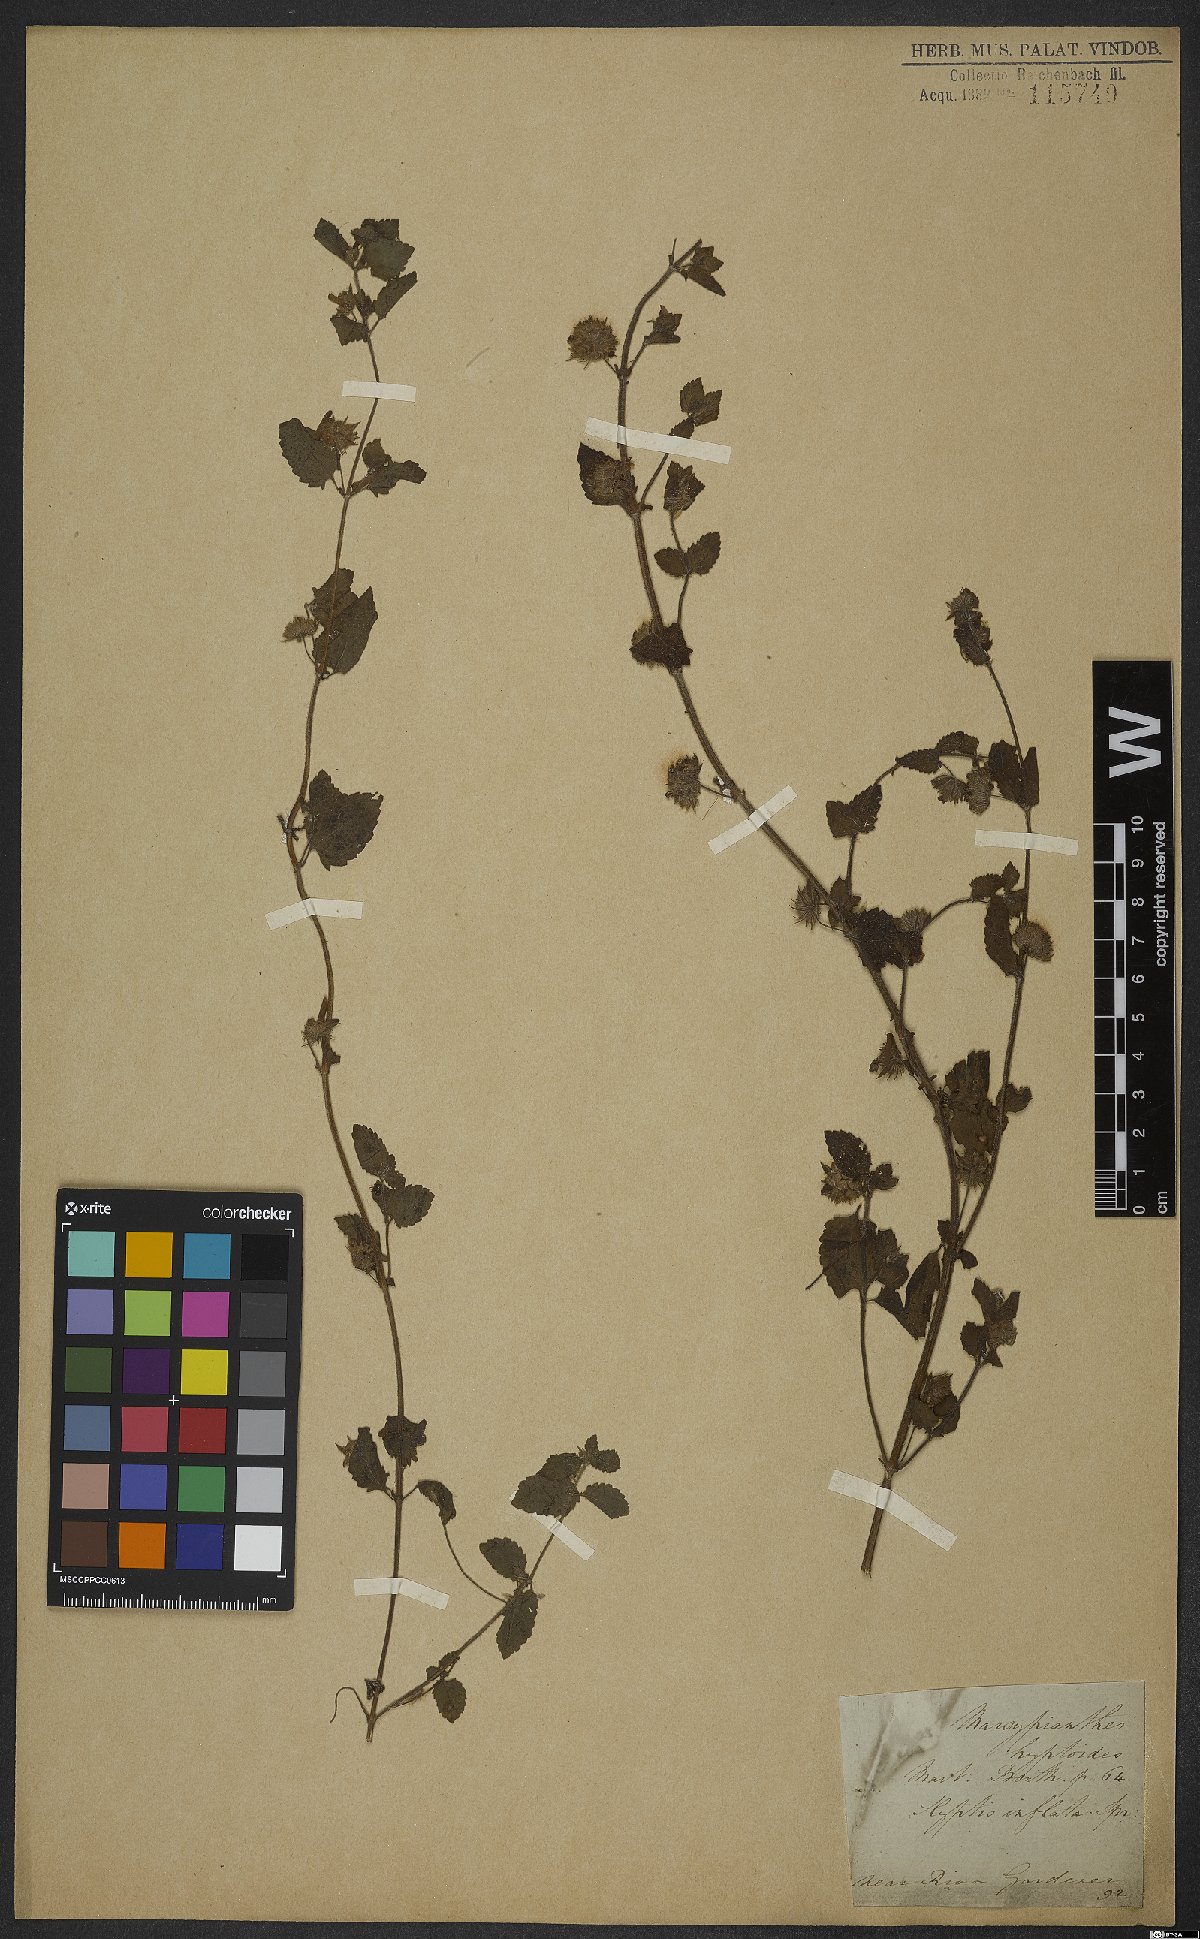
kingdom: Plantae
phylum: Tracheophyta
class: Magnoliopsida
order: Lamiales
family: Lamiaceae
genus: Marsypianthes
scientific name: Marsypianthes chamaedrys
